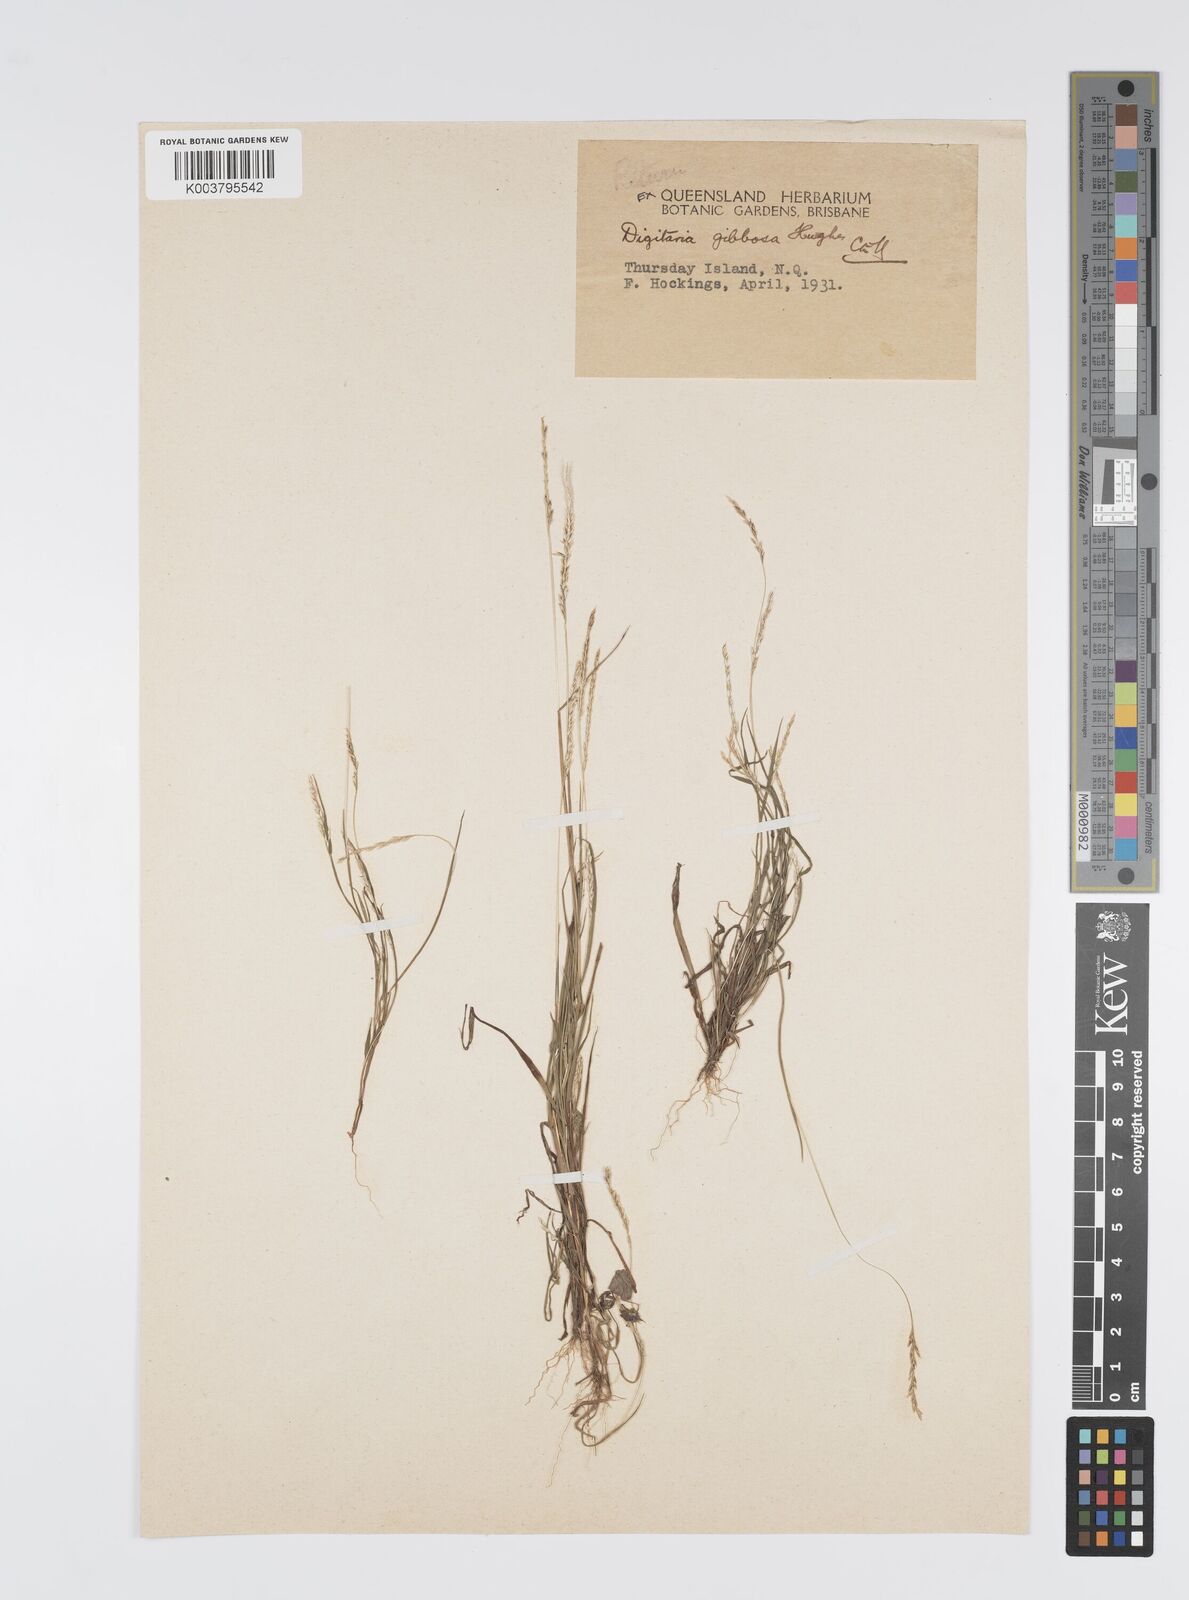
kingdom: Plantae
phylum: Tracheophyta
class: Liliopsida
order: Poales
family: Poaceae
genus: Digitaria
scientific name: Digitaria gibbosa
